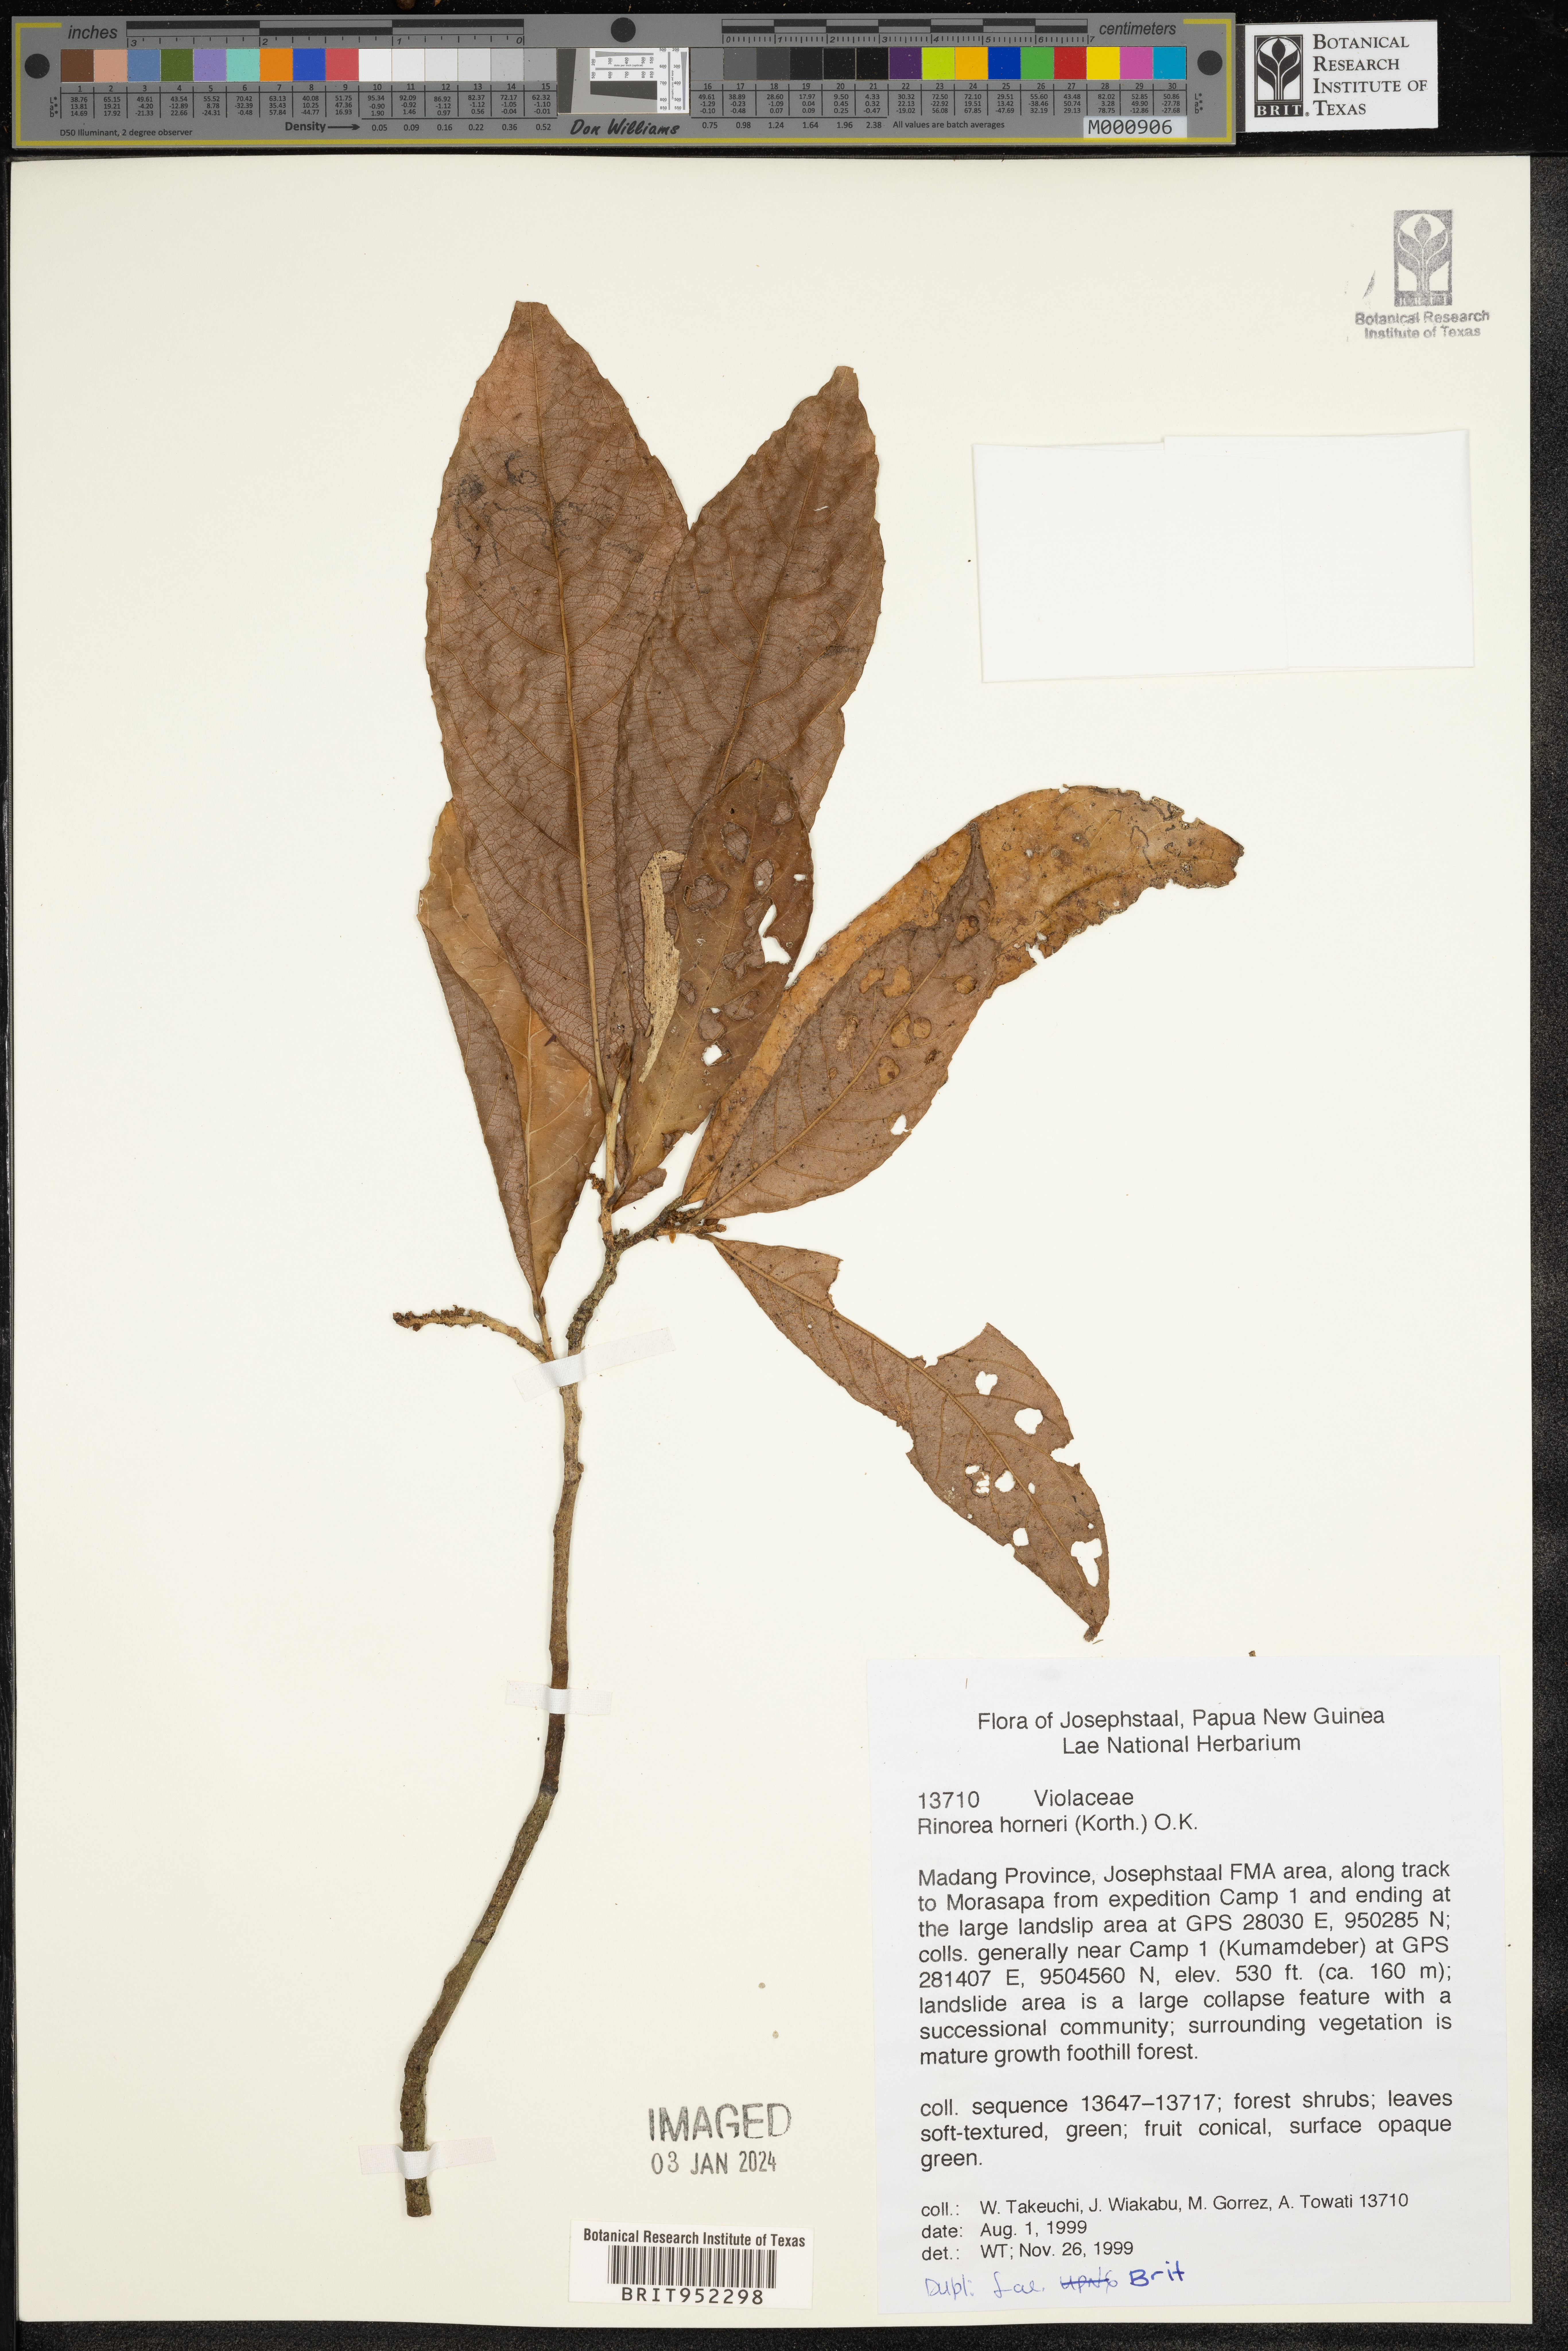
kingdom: Plantae
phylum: Tracheophyta
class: Magnoliopsida
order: Malpighiales
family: Violaceae
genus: Rinorea
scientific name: Rinorea
